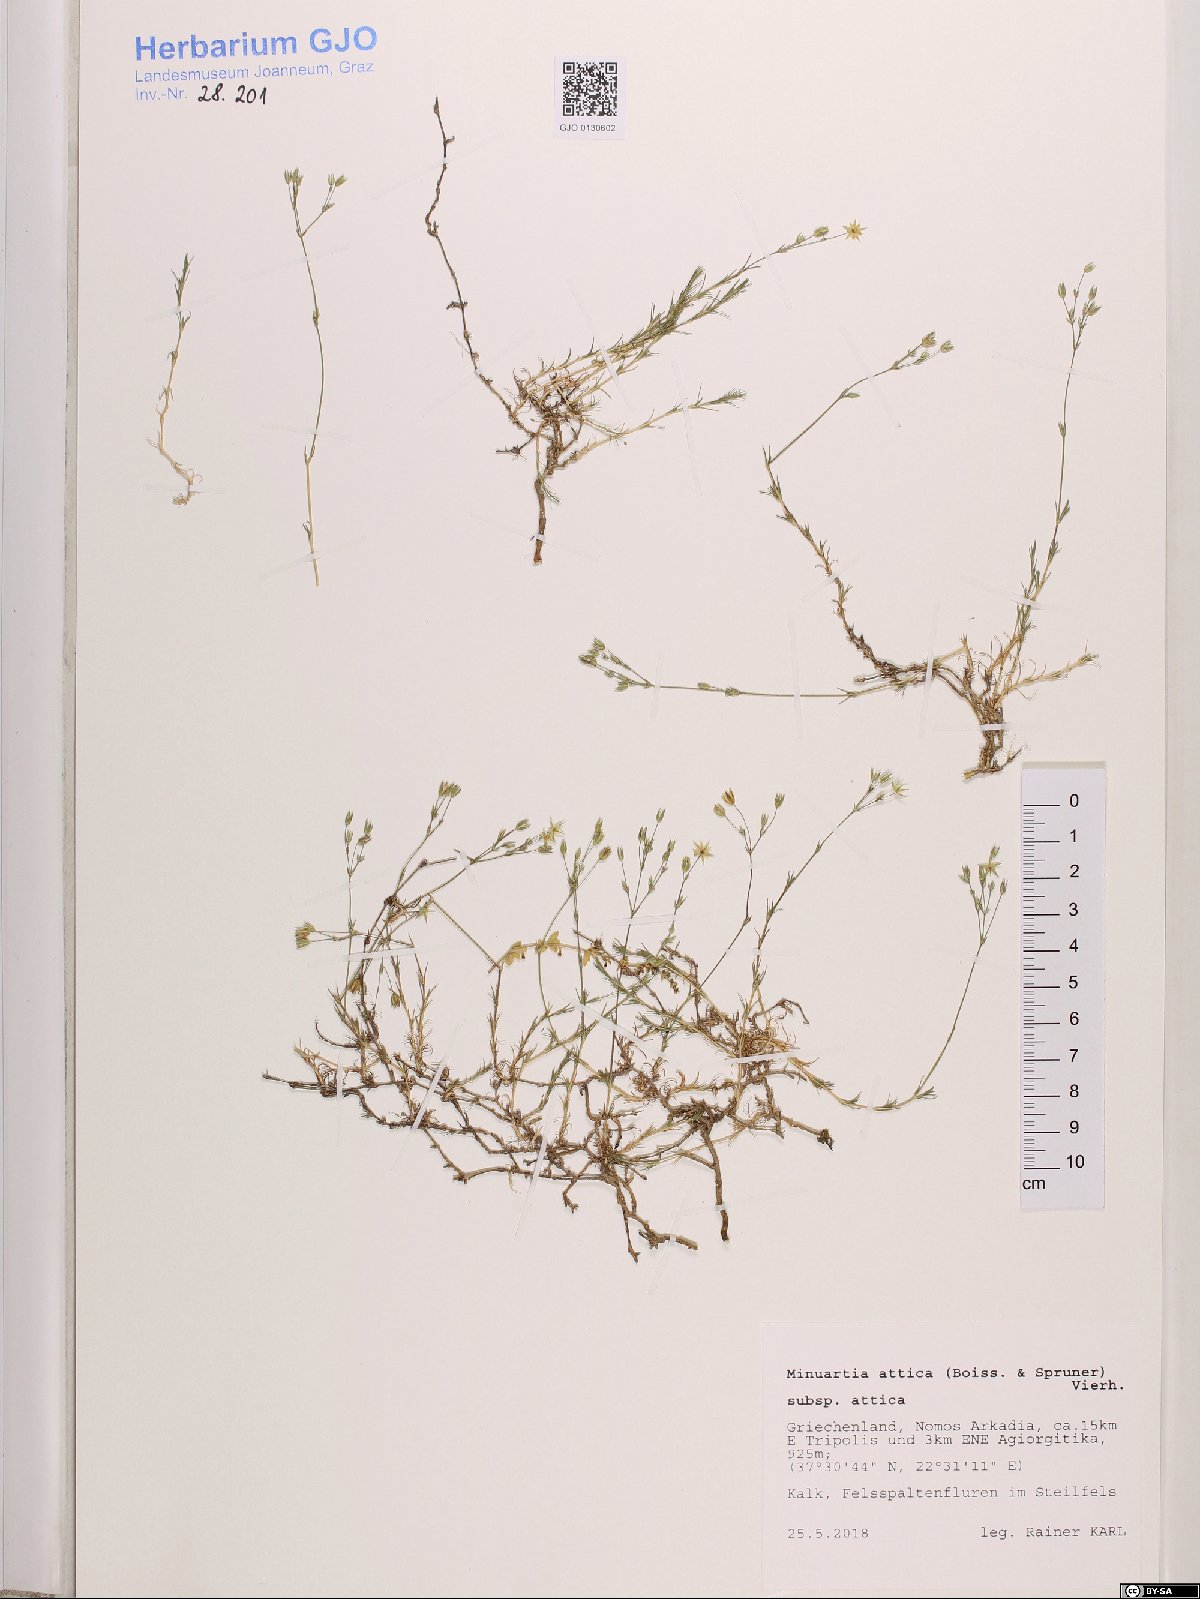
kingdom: Plantae
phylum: Tracheophyta
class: Magnoliopsida
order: Caryophyllales
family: Caryophyllaceae
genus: Sabulina
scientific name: Sabulina attica
